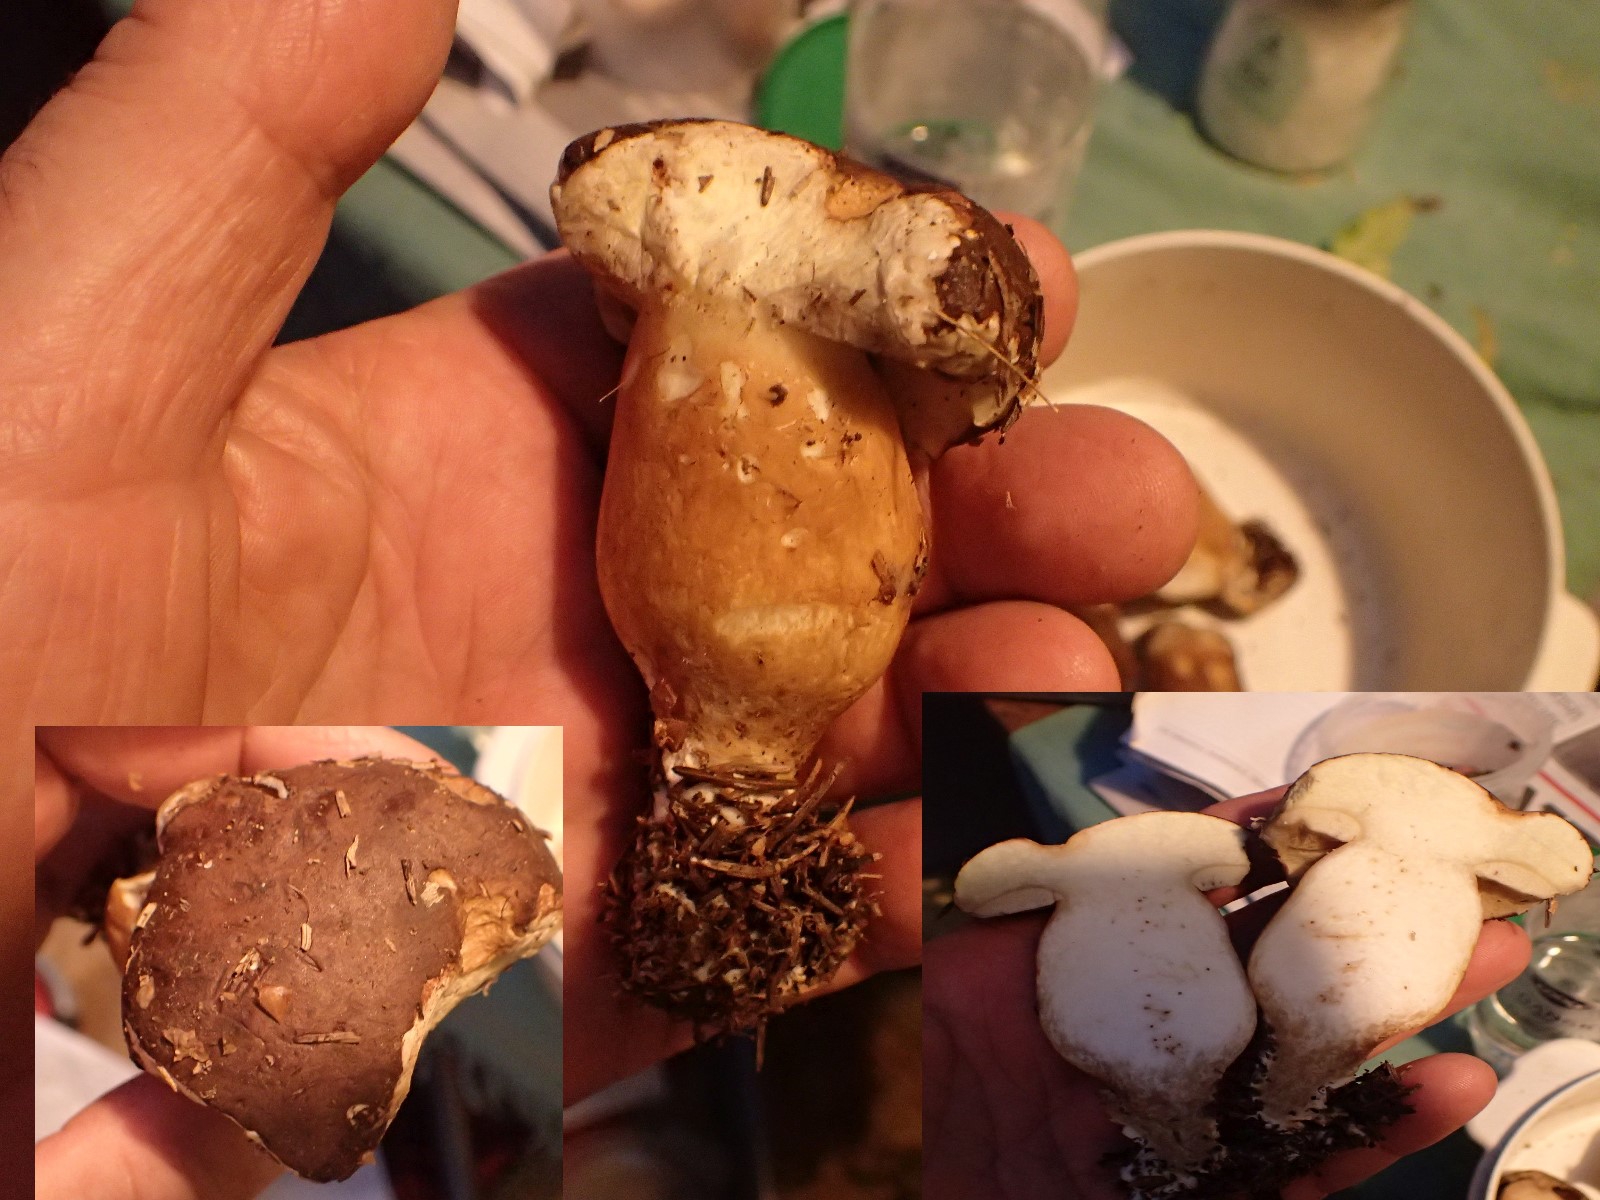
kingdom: Fungi
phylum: Basidiomycota
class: Agaricomycetes
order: Boletales
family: Boletaceae
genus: Butyriboletus
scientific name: Butyriboletus appendiculatus
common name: tenstokket rørhat
